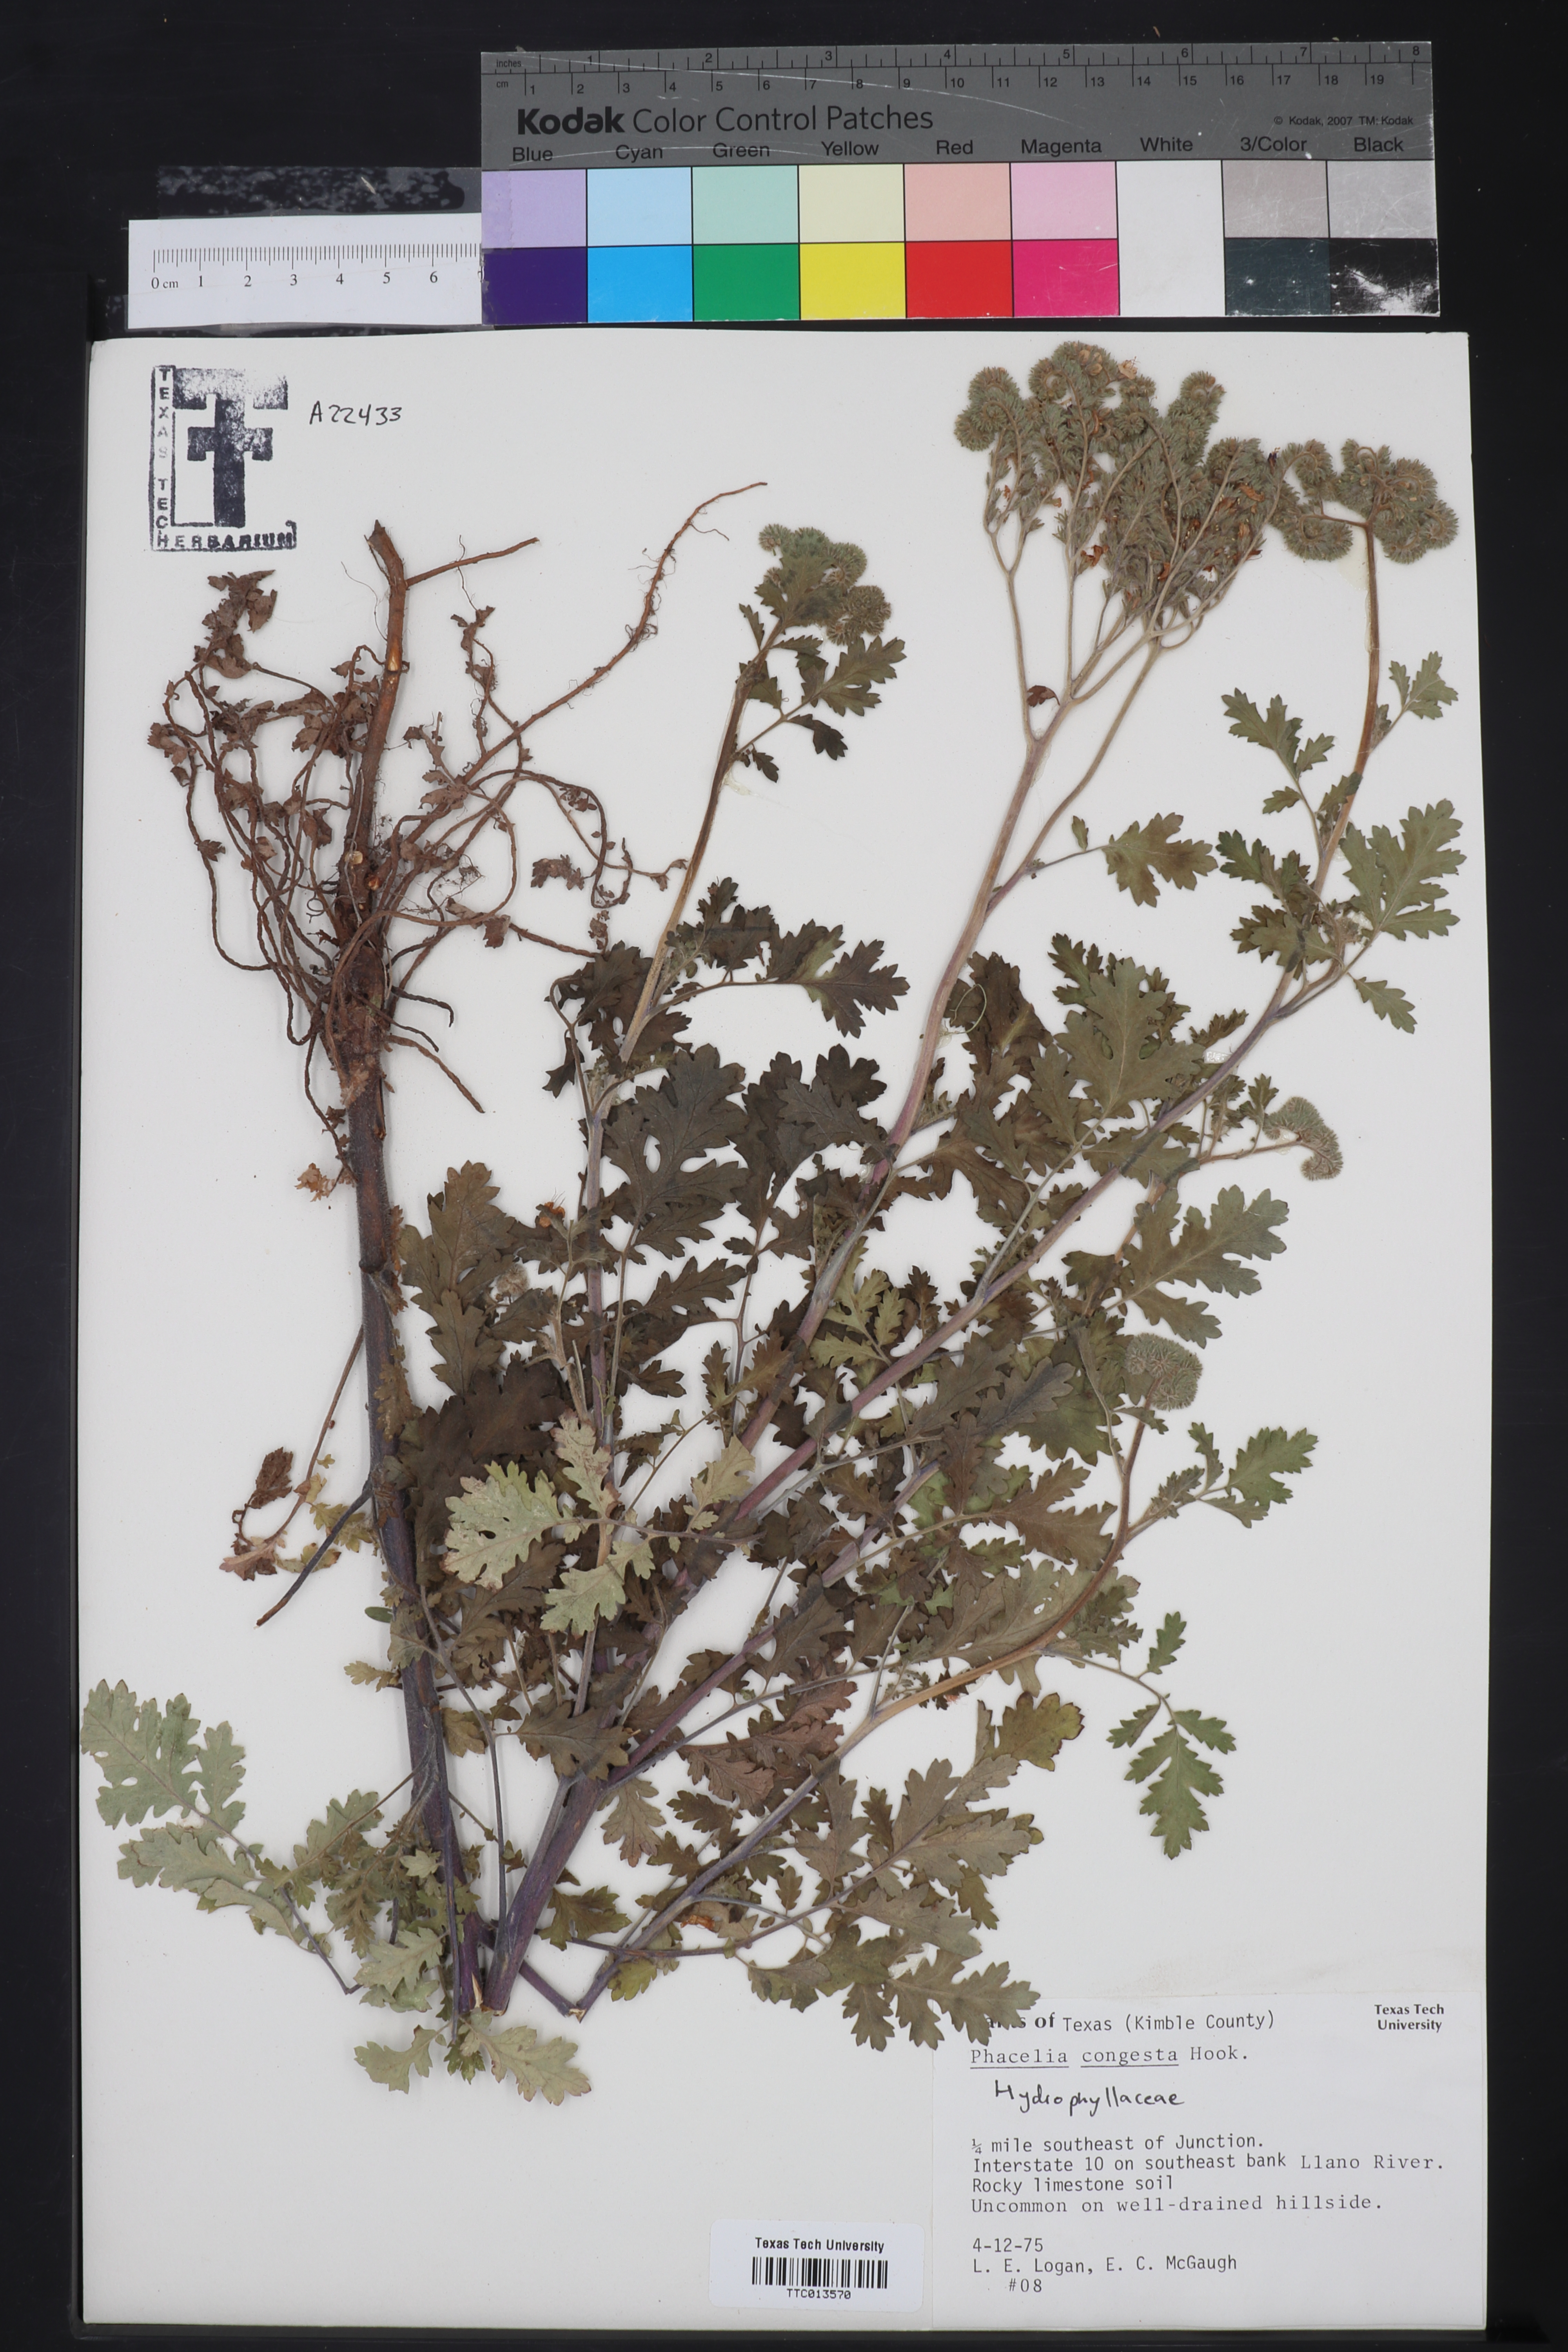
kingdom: Plantae
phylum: Tracheophyta
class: Magnoliopsida
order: Boraginales
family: Hydrophyllaceae
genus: Phacelia
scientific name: Phacelia congesta
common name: Blue curls
